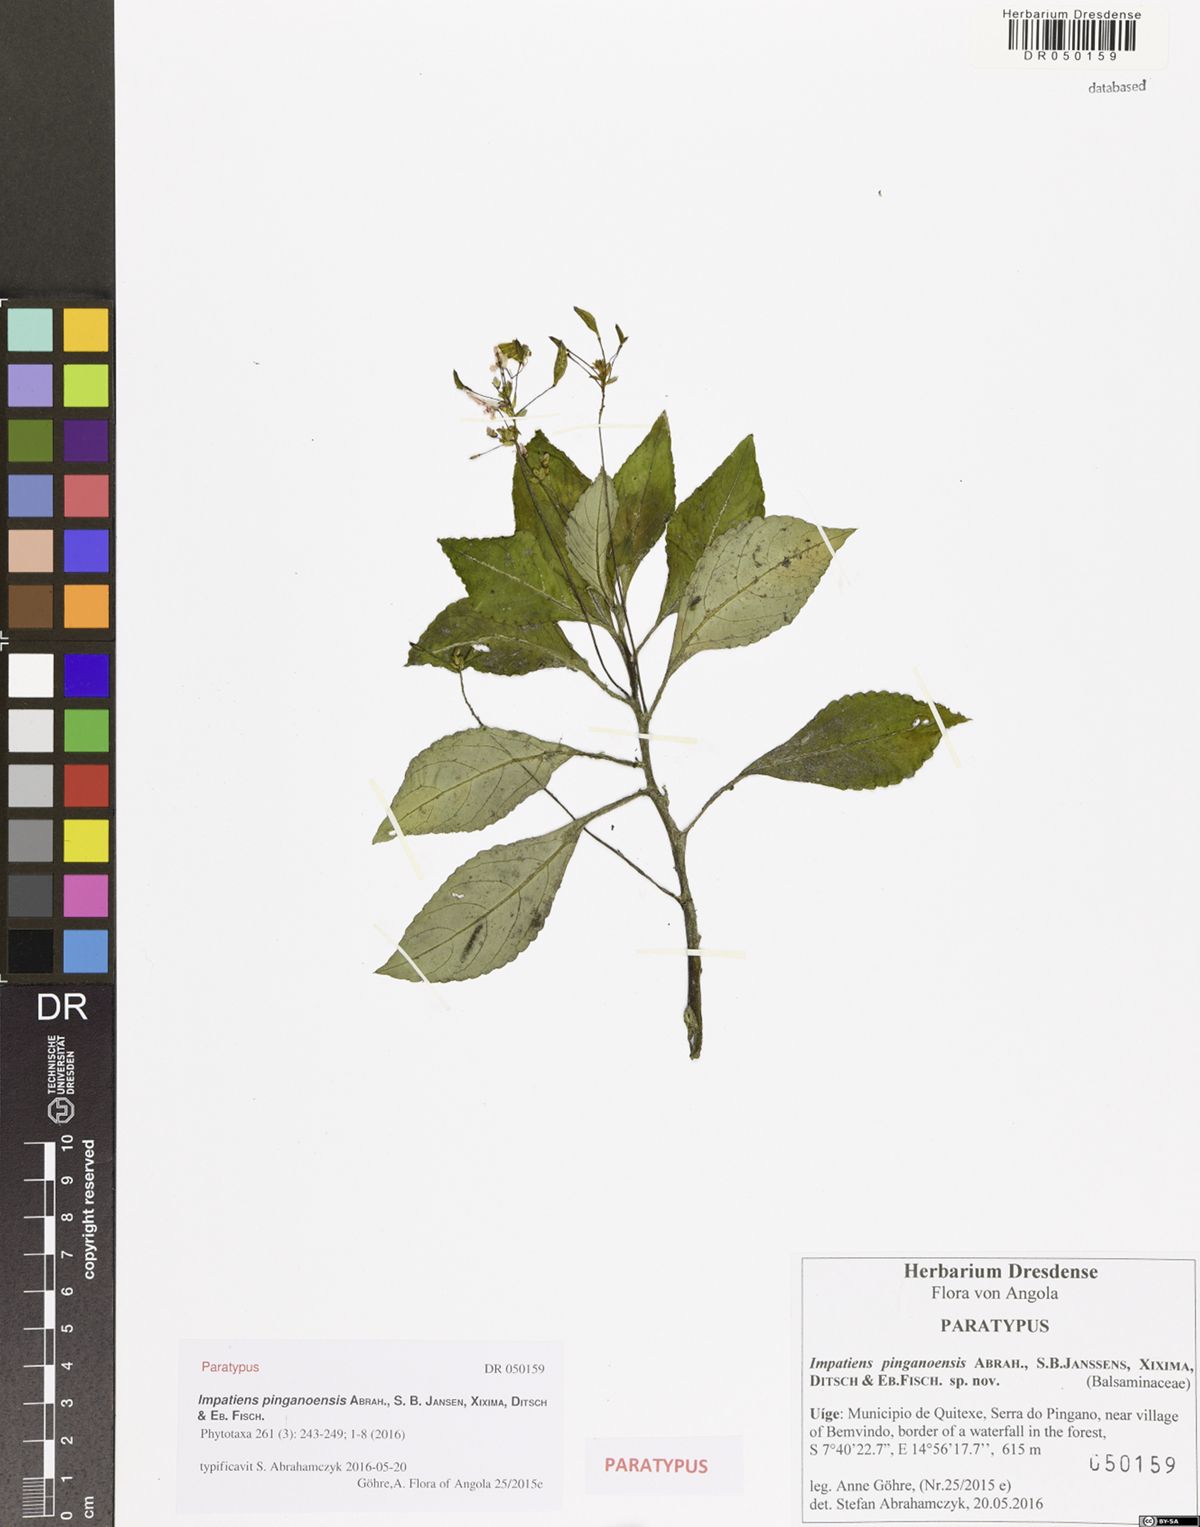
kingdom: Plantae
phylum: Tracheophyta
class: Magnoliopsida
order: Ericales
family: Balsaminaceae
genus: Impatiens
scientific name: Impatiens pinganoensis
